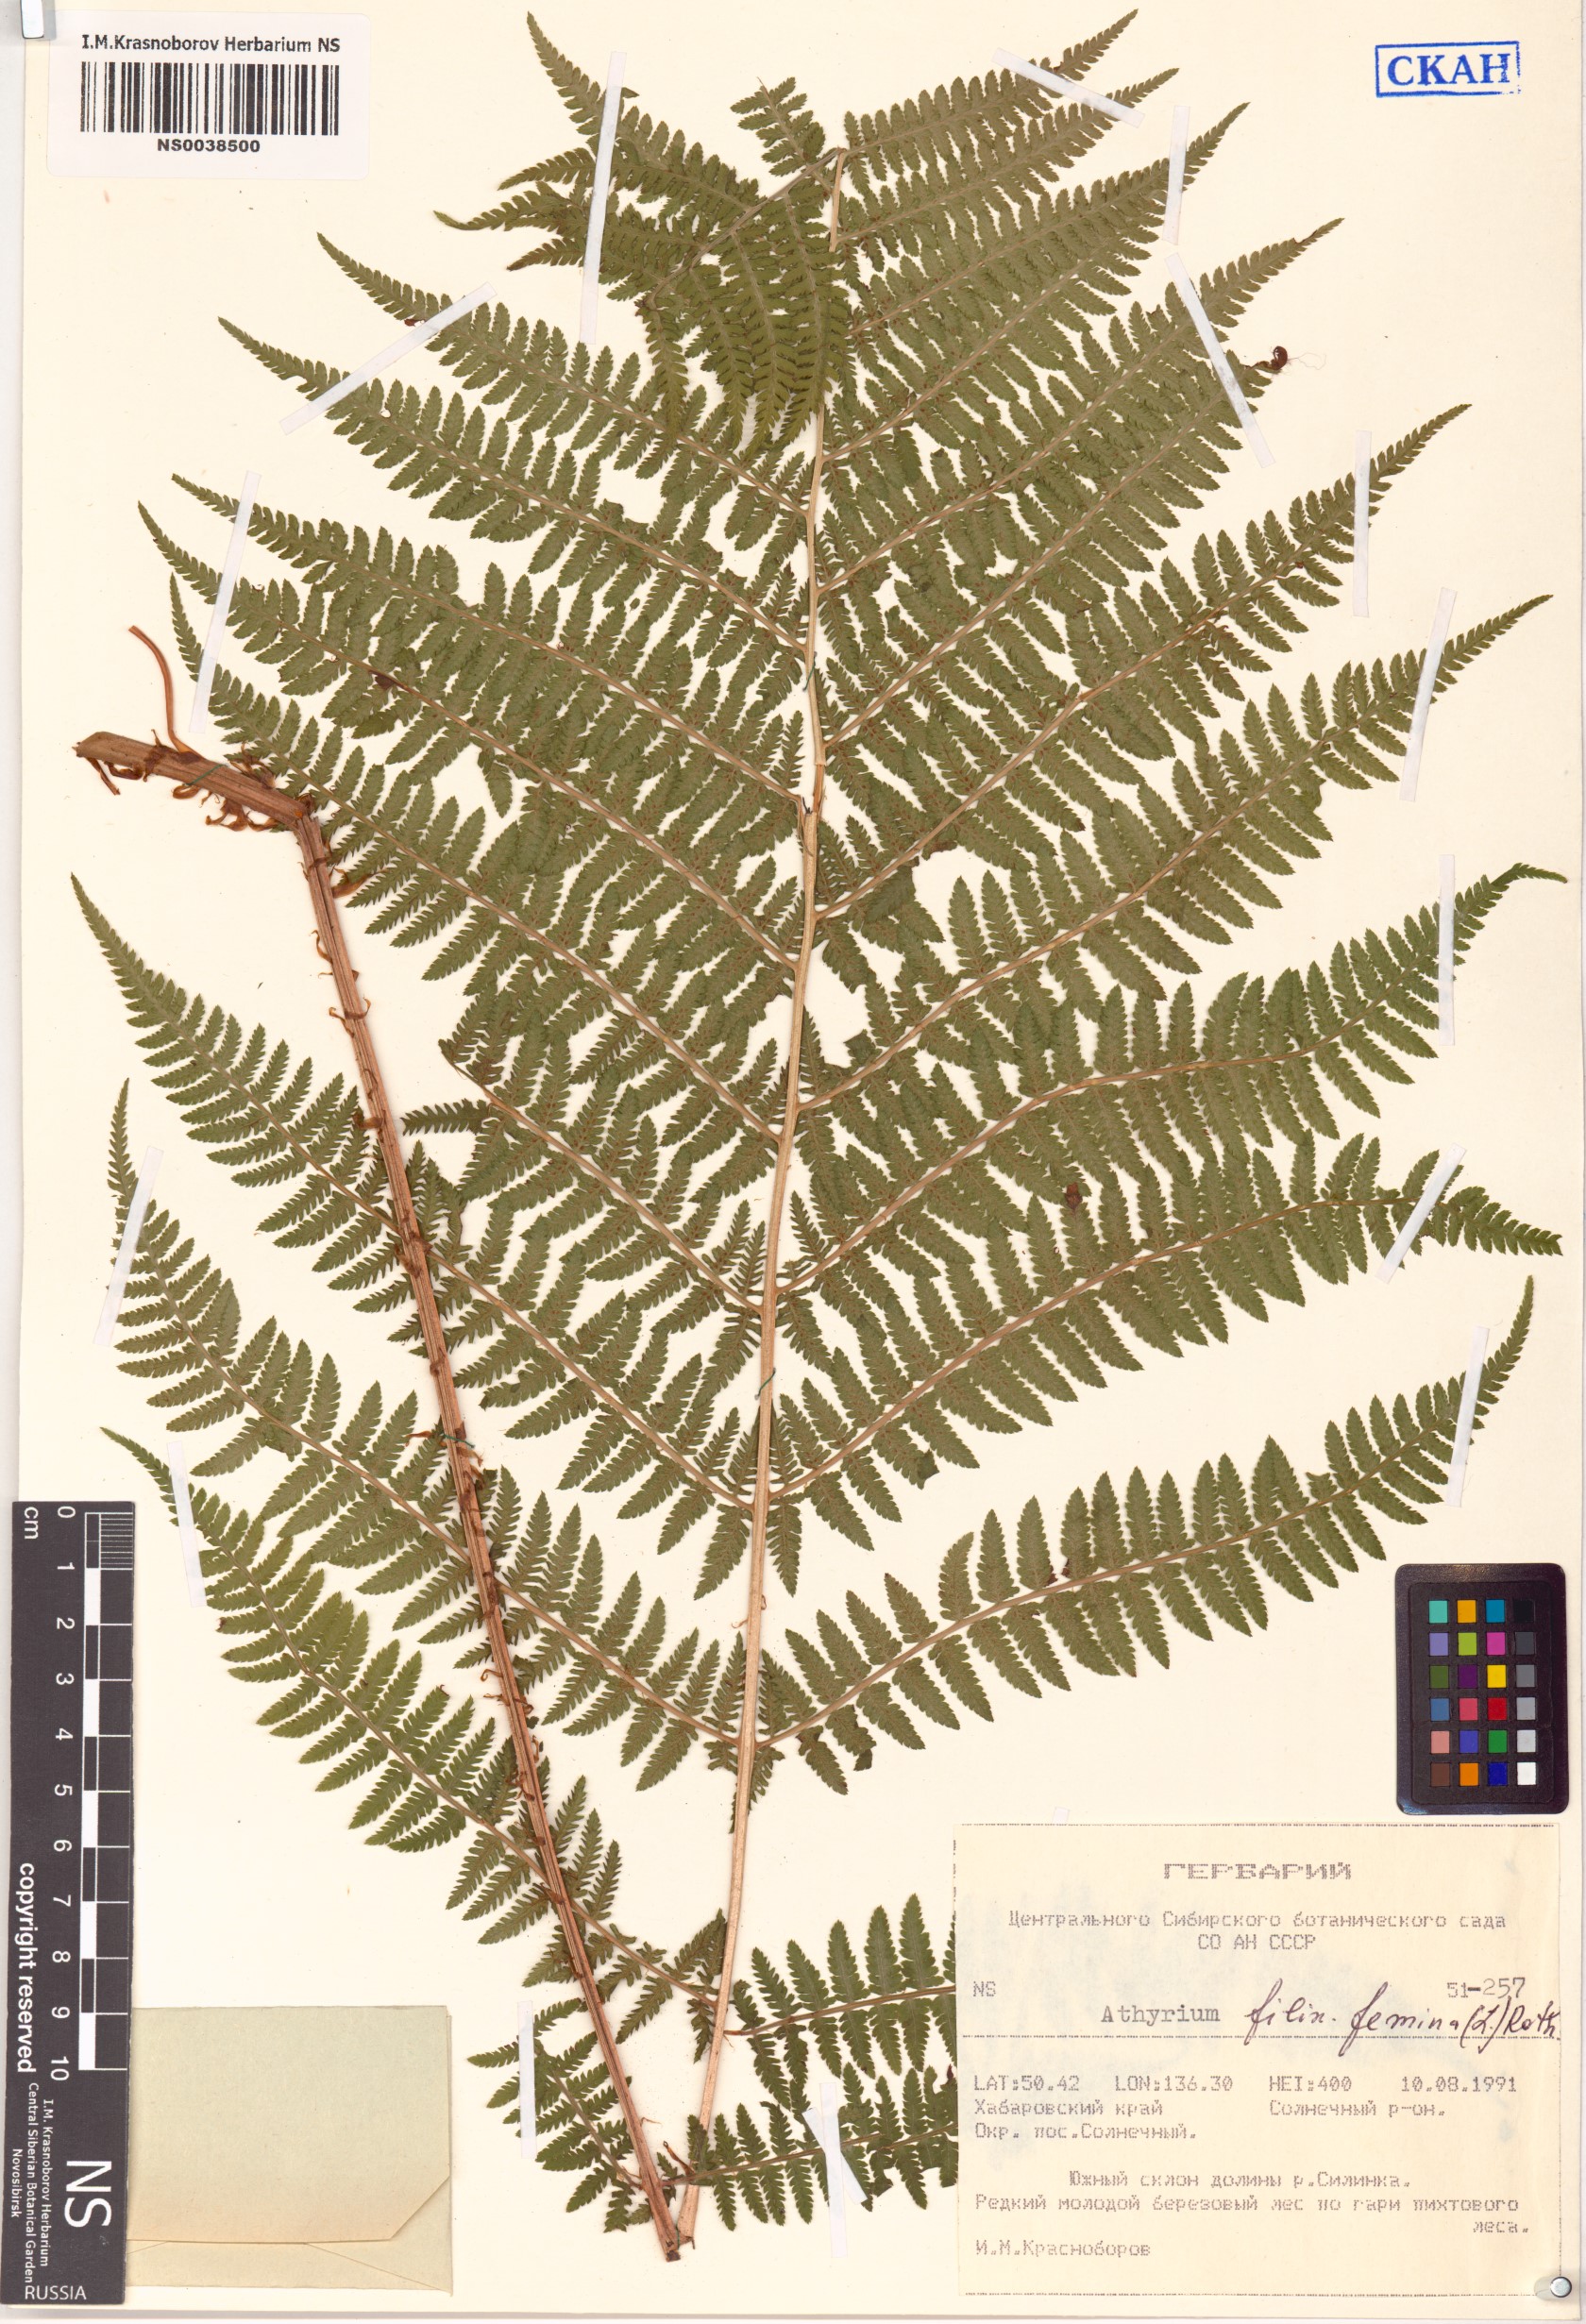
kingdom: Plantae
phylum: Tracheophyta
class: Polypodiopsida
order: Polypodiales
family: Athyriaceae
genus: Athyrium
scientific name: Athyrium filix-femina
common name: Lady fern
